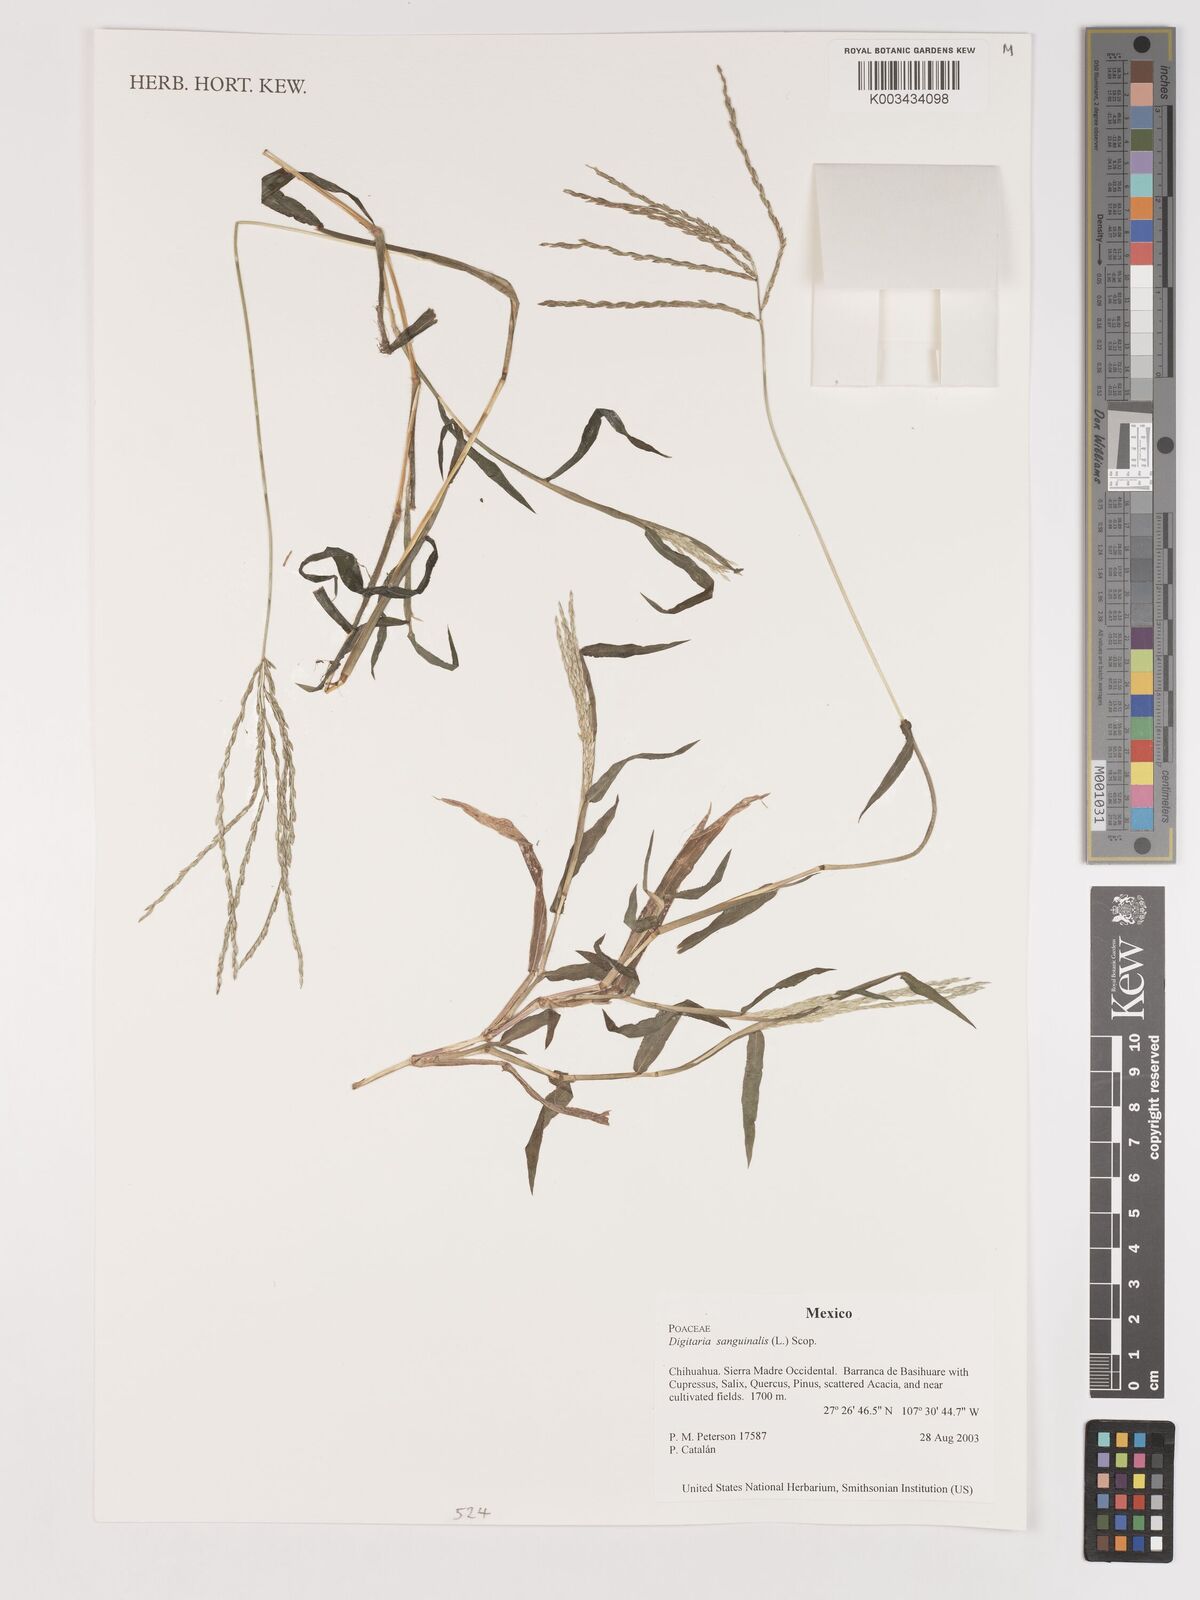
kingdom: Plantae
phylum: Tracheophyta
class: Liliopsida
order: Poales
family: Poaceae
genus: Digitaria
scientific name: Digitaria sanguinalis
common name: Hairy crabgrass
